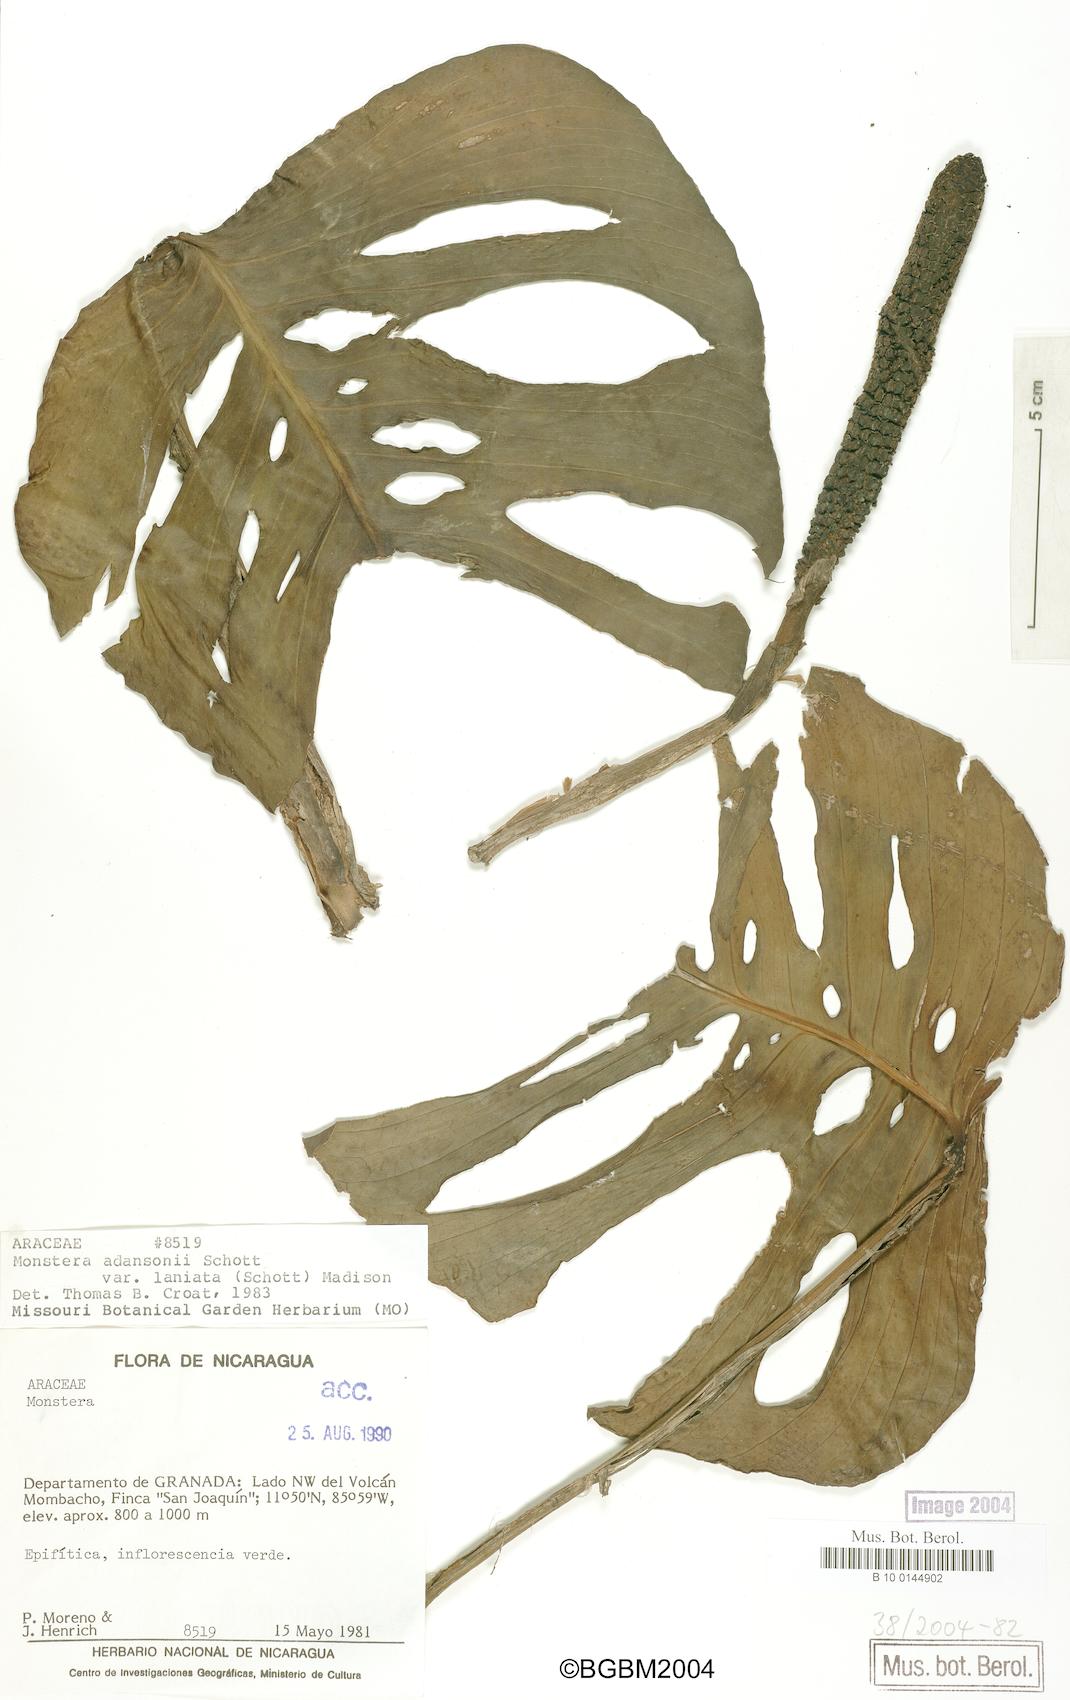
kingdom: Plantae
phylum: Tracheophyta
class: Liliopsida
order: Alismatales
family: Araceae
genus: Monstera
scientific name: Monstera adansonii
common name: Tarovine
